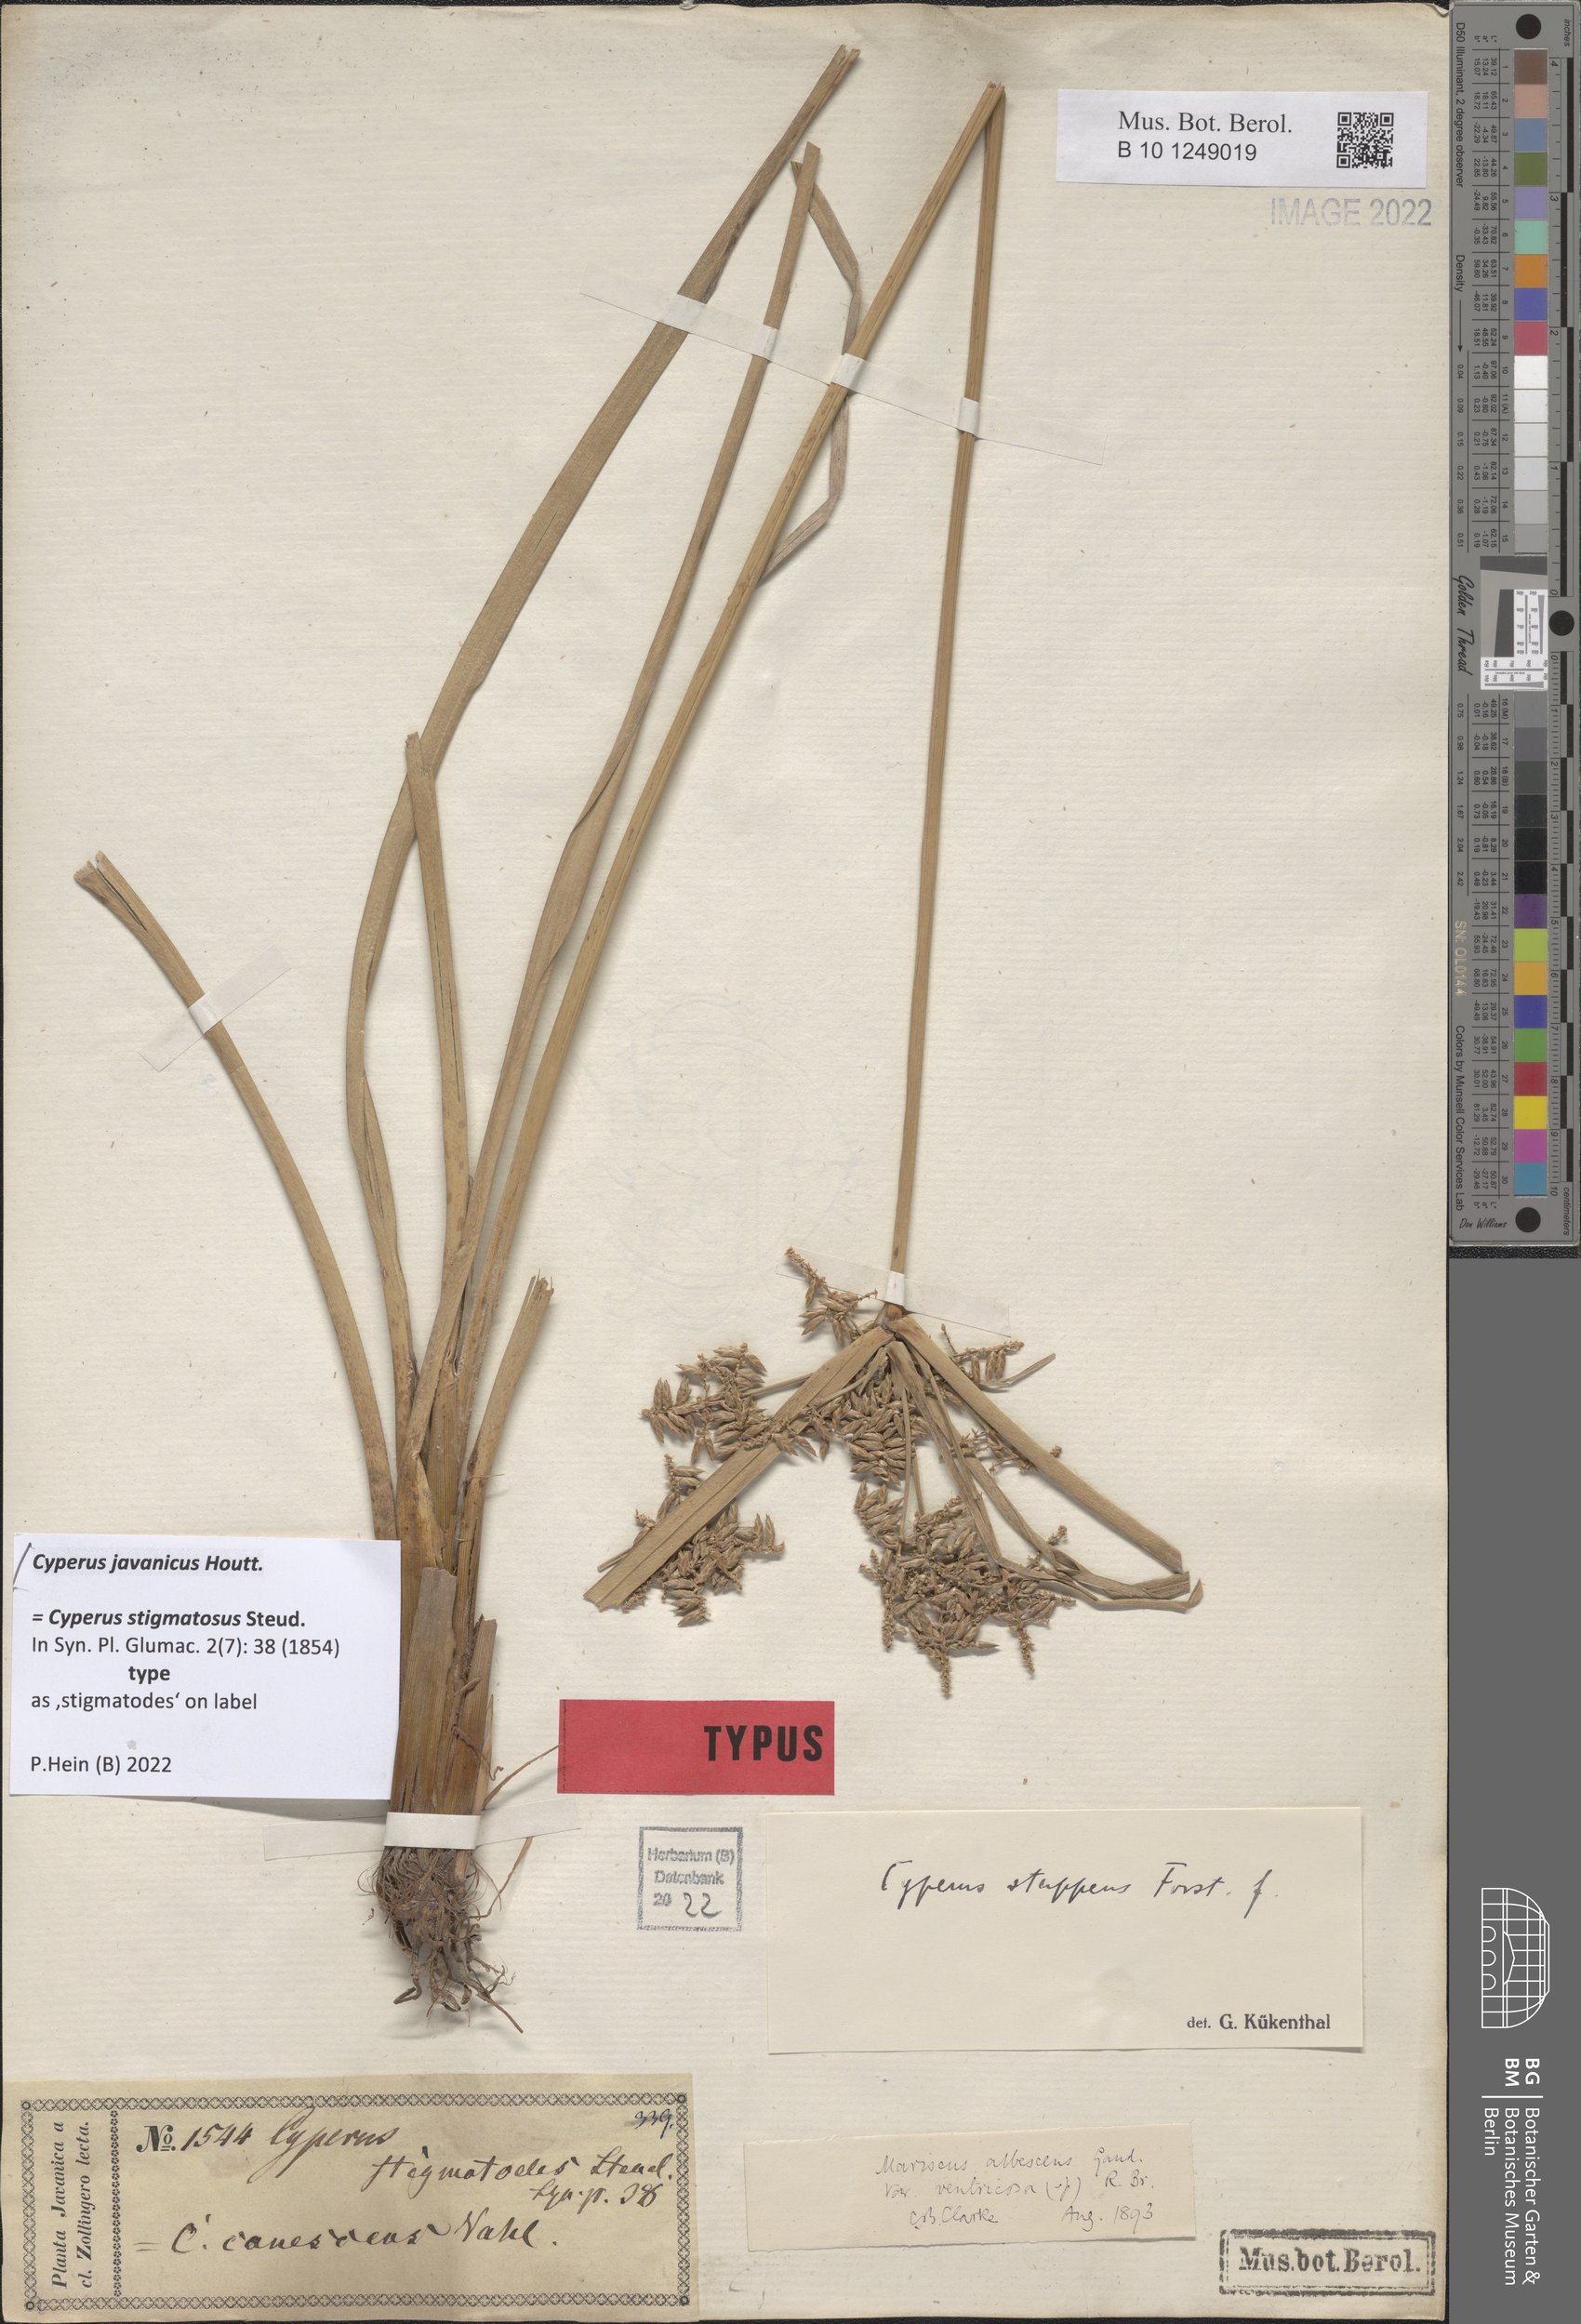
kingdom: Plantae
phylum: Tracheophyta
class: Liliopsida
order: Poales
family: Cyperaceae
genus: Cyperus
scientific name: Cyperus javanicus
